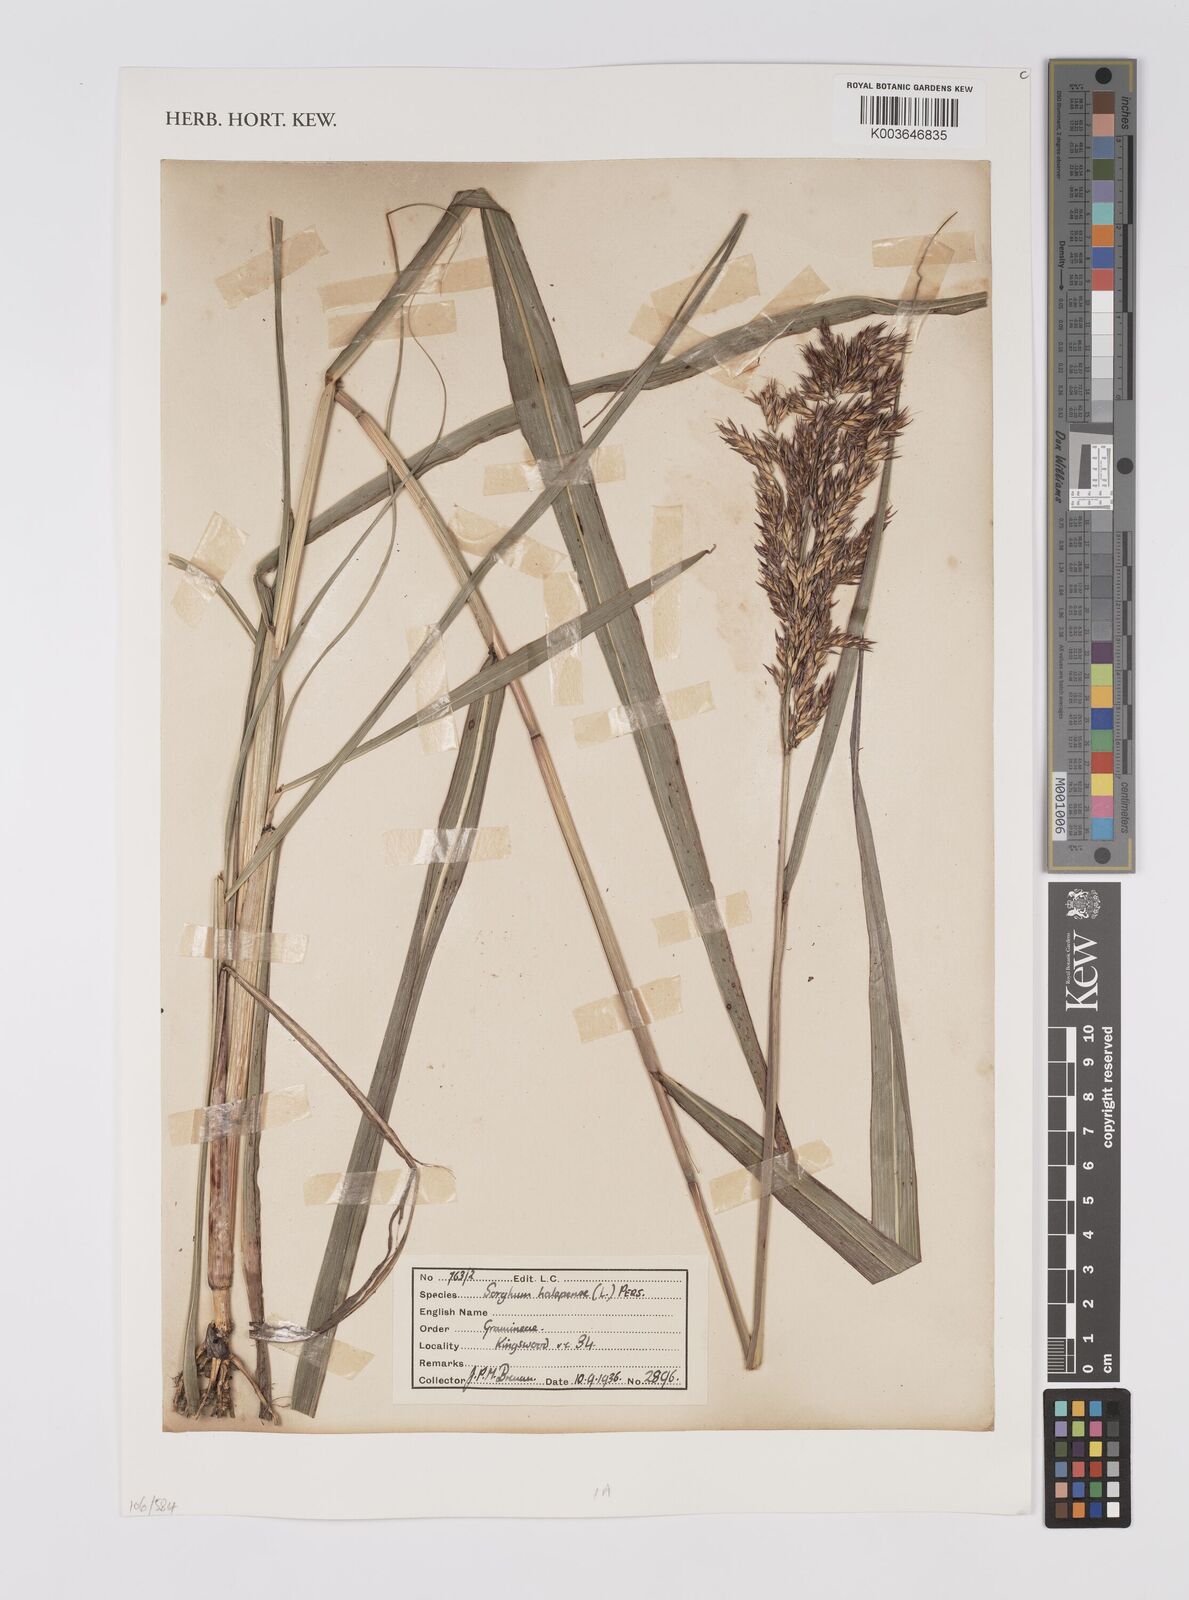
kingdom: Plantae
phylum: Tracheophyta
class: Liliopsida
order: Poales
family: Poaceae
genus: Sorghum
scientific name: Sorghum halepense
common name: Johnson-grass
